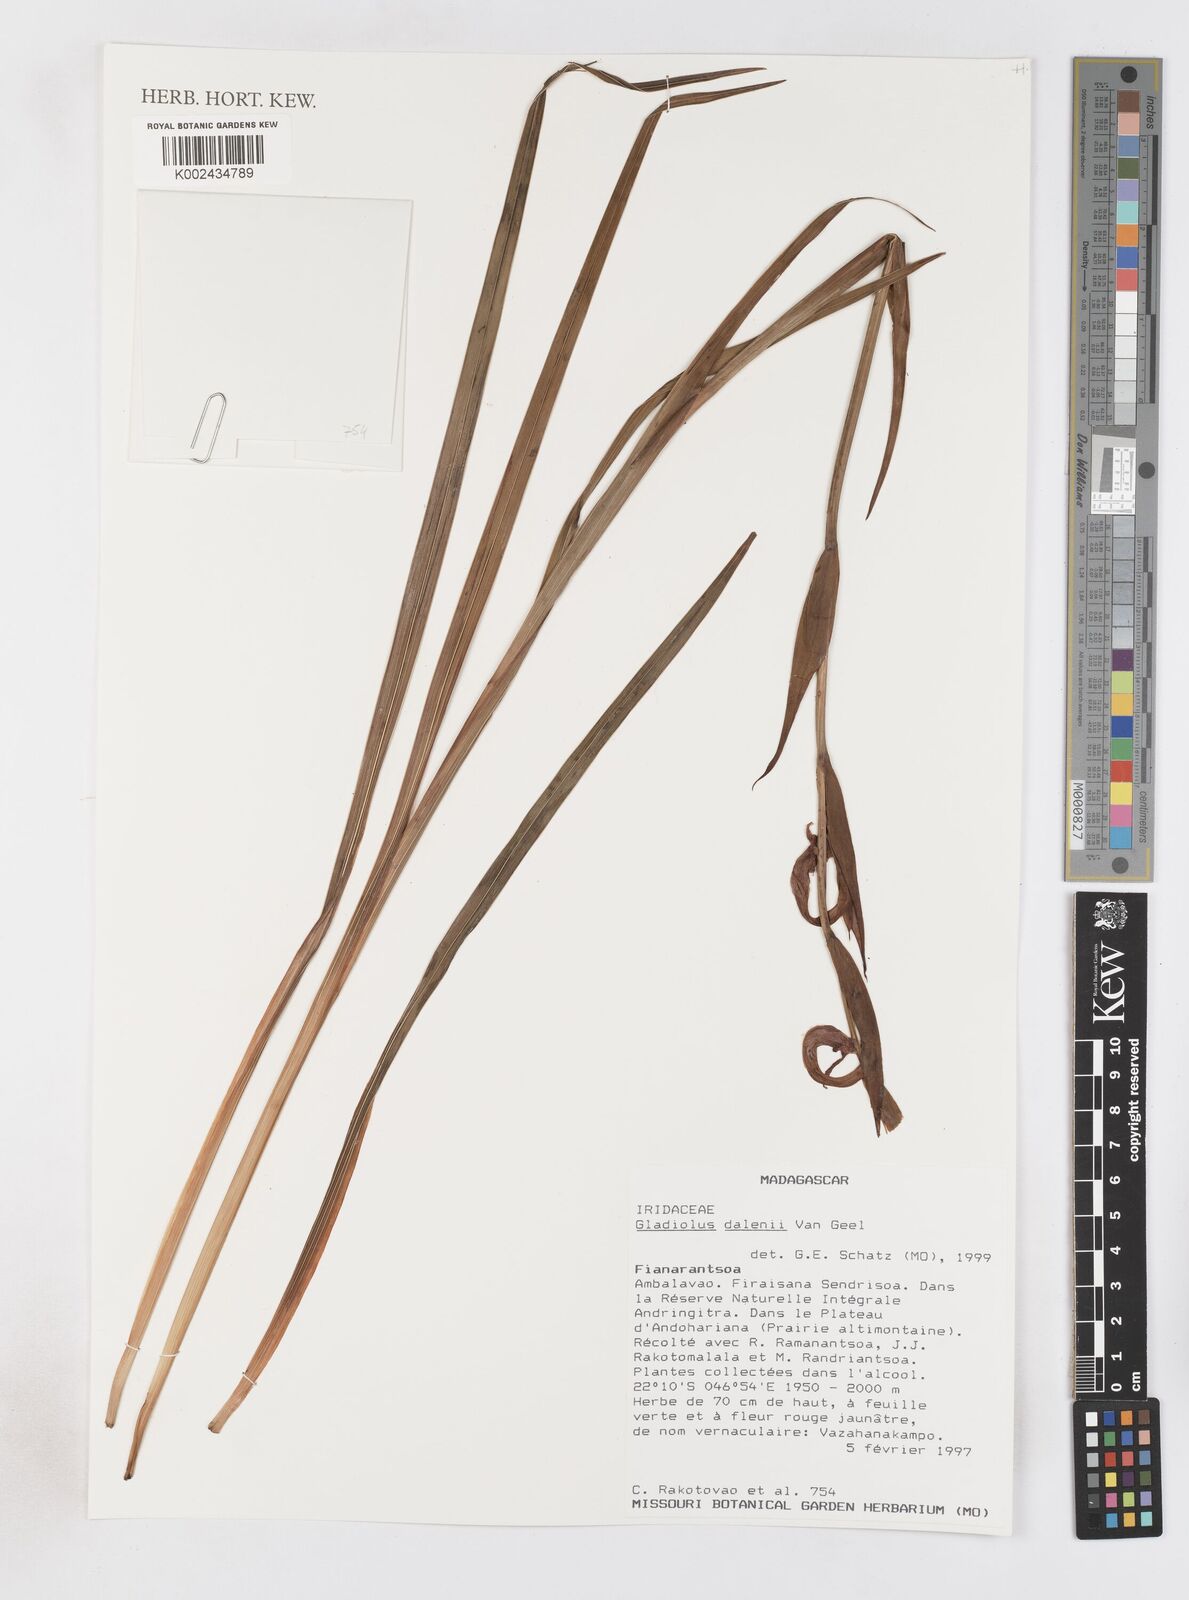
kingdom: Plantae
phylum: Tracheophyta
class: Liliopsida
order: Asparagales
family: Iridaceae
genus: Gladiolus
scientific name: Gladiolus dalenii
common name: Cornflag
